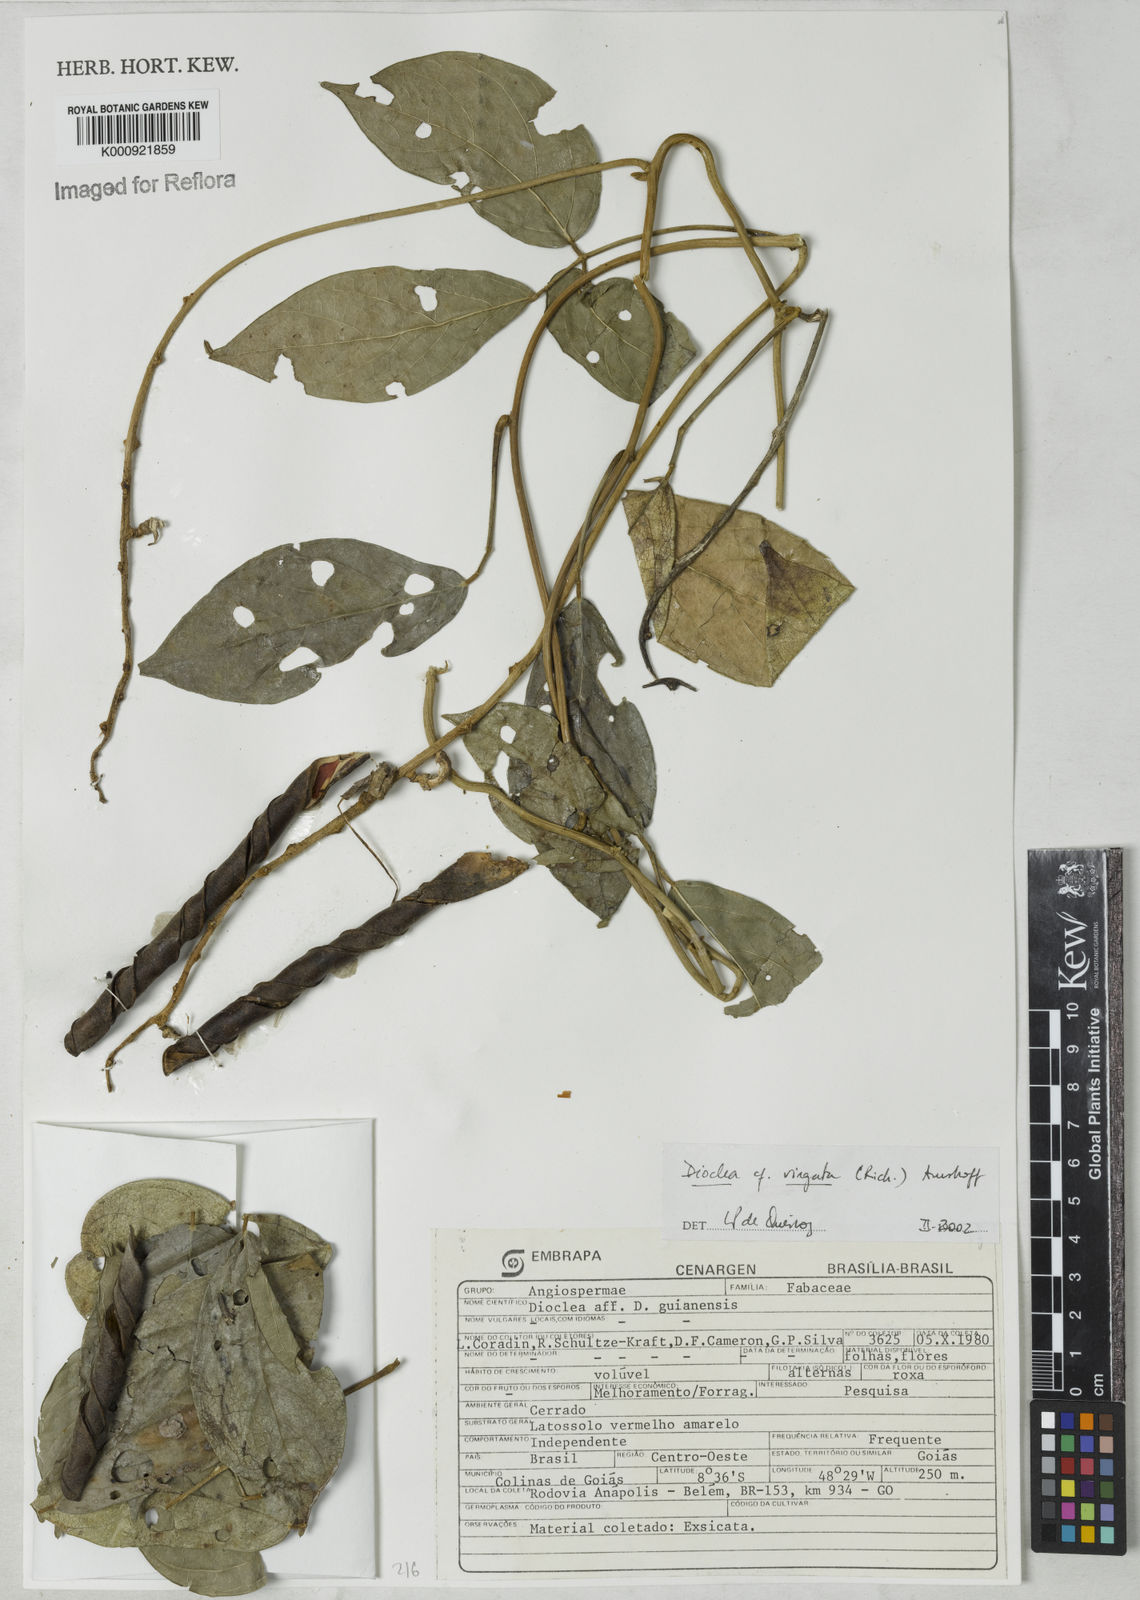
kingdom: Plantae
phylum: Tracheophyta
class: Magnoliopsida
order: Fabales
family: Fabaceae
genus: Dioclea
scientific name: Dioclea virgata
